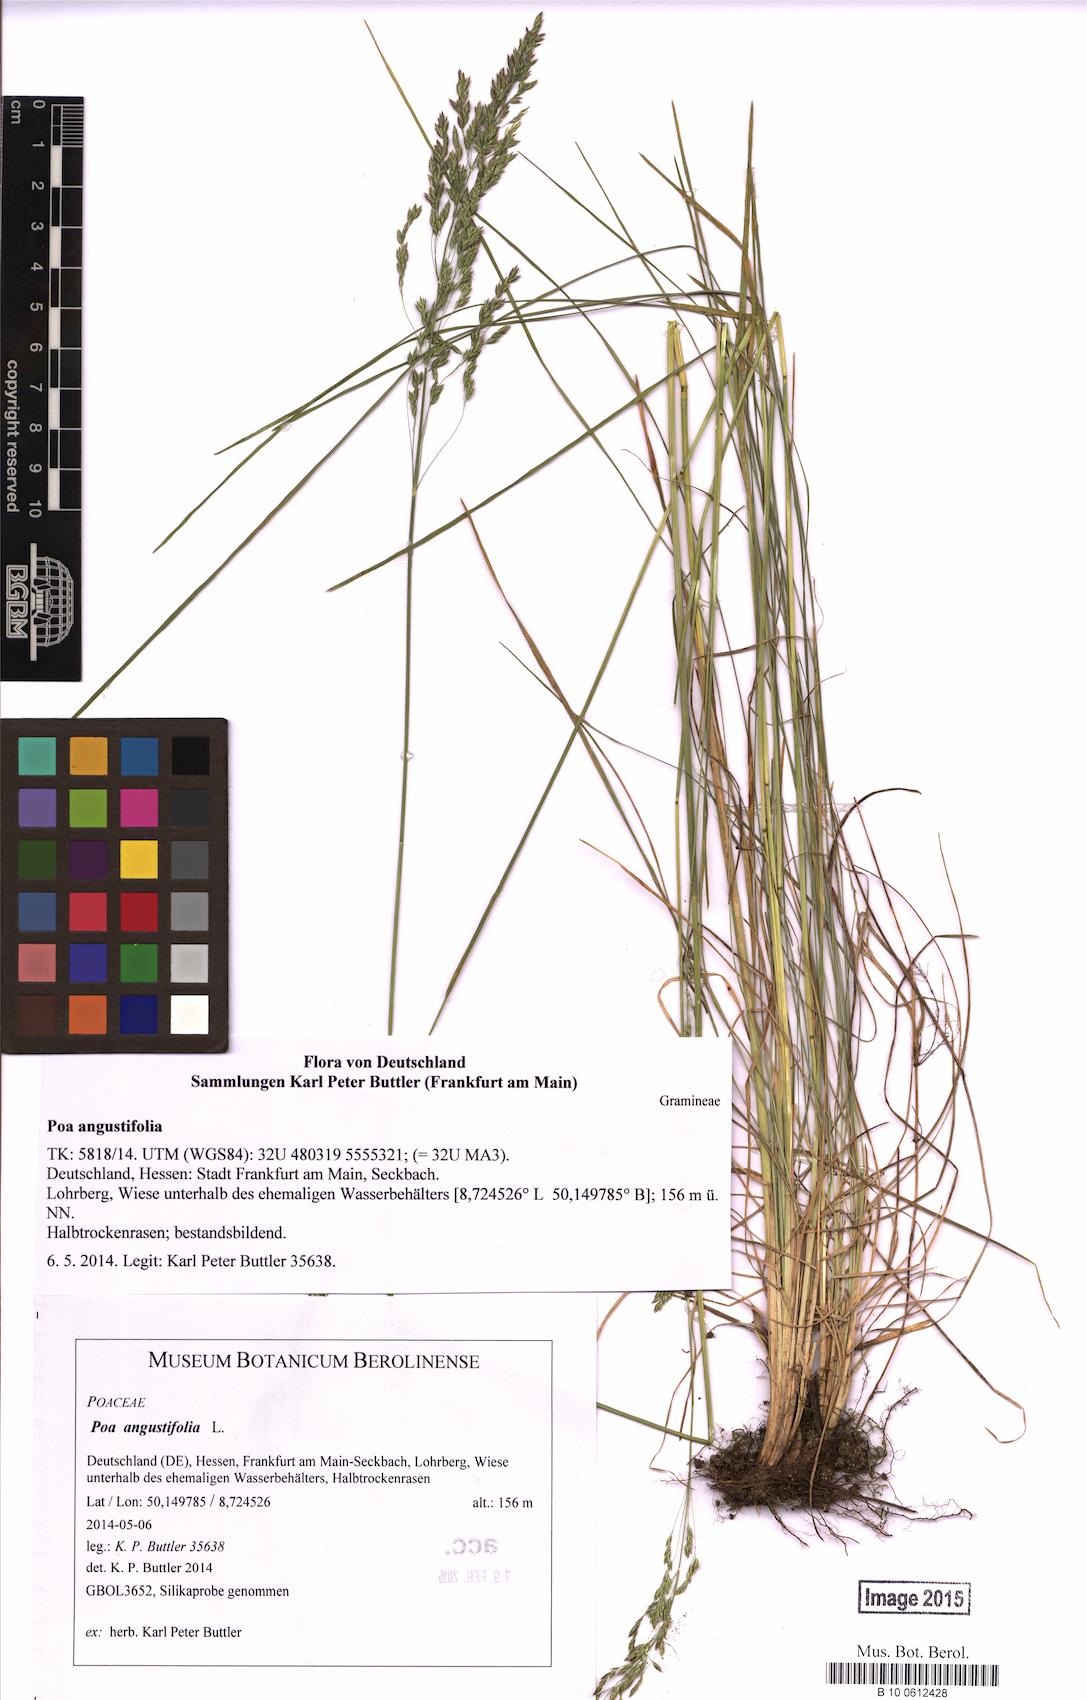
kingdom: Plantae
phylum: Tracheophyta
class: Liliopsida
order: Poales
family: Poaceae
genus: Poa
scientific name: Poa angustifolia
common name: Narrow-leaved meadow-grass
